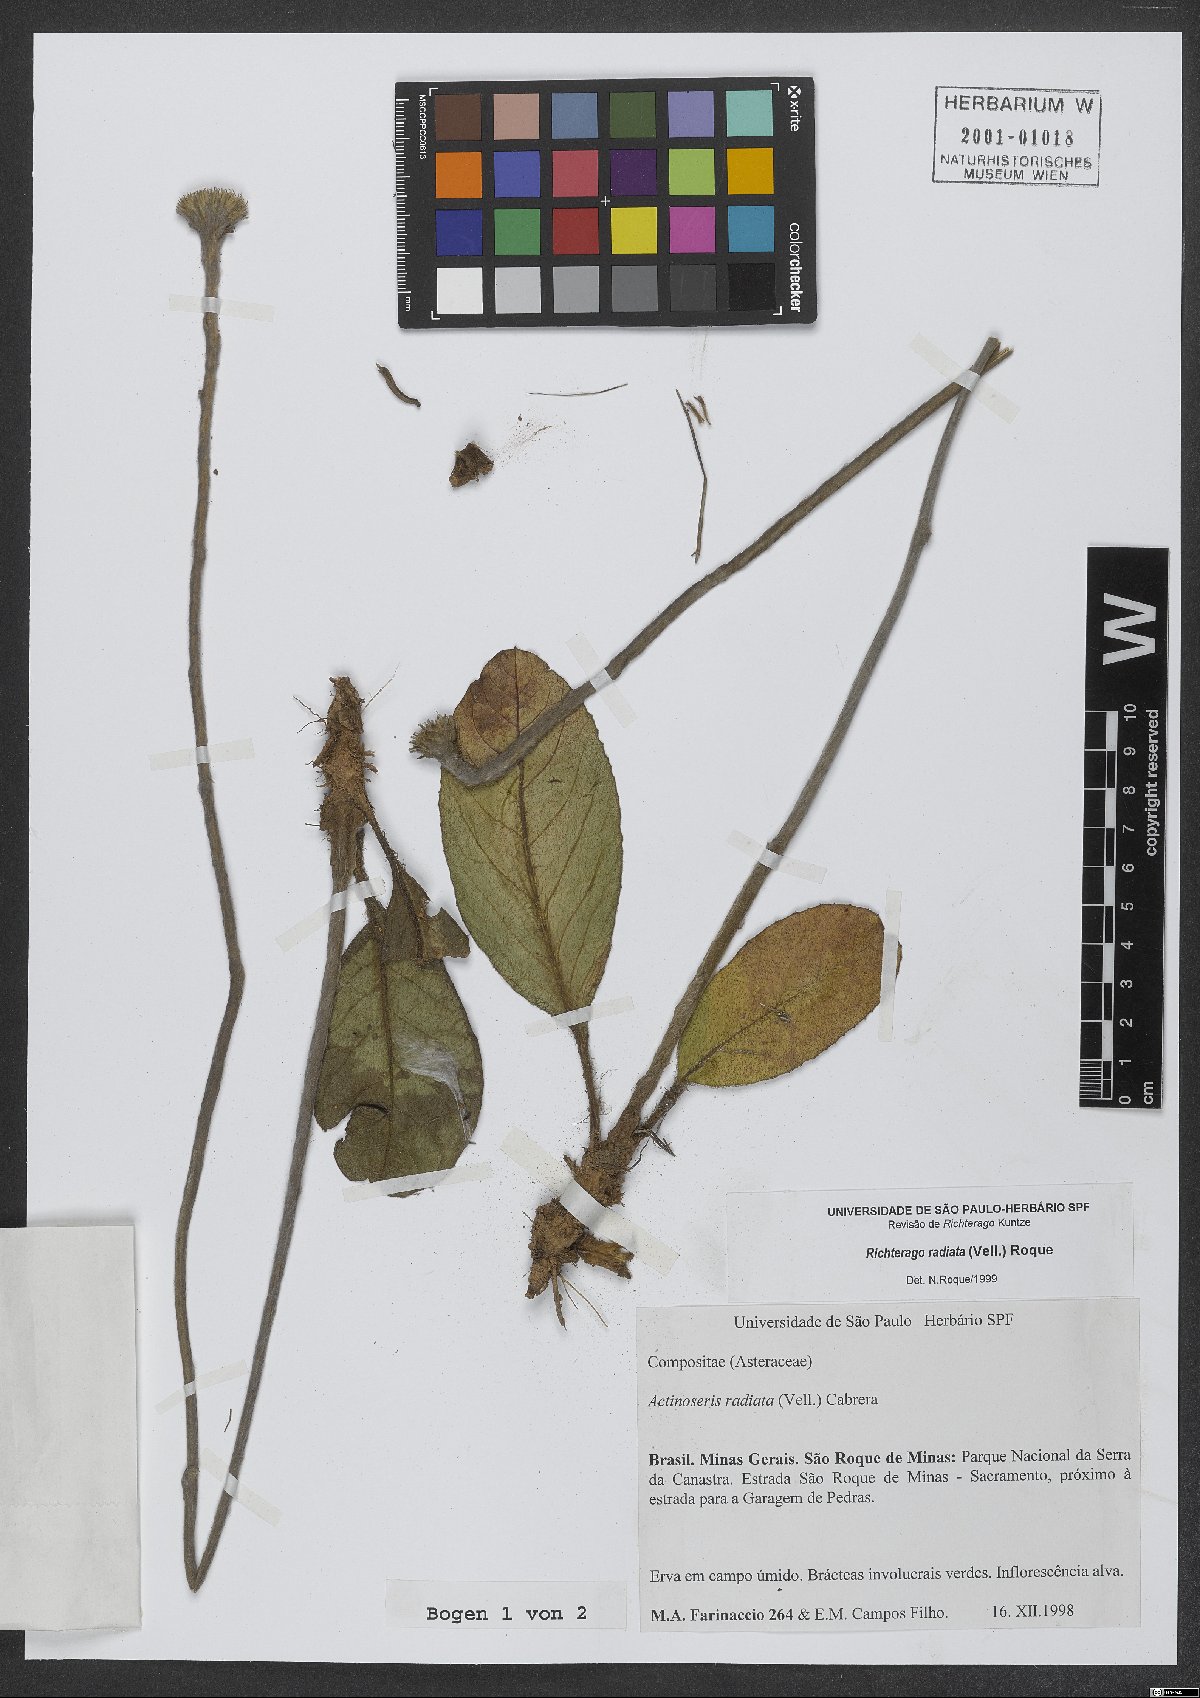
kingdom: Plantae
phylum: Tracheophyta
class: Magnoliopsida
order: Asterales
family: Asteraceae
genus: Richterago
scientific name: Richterago radiata
